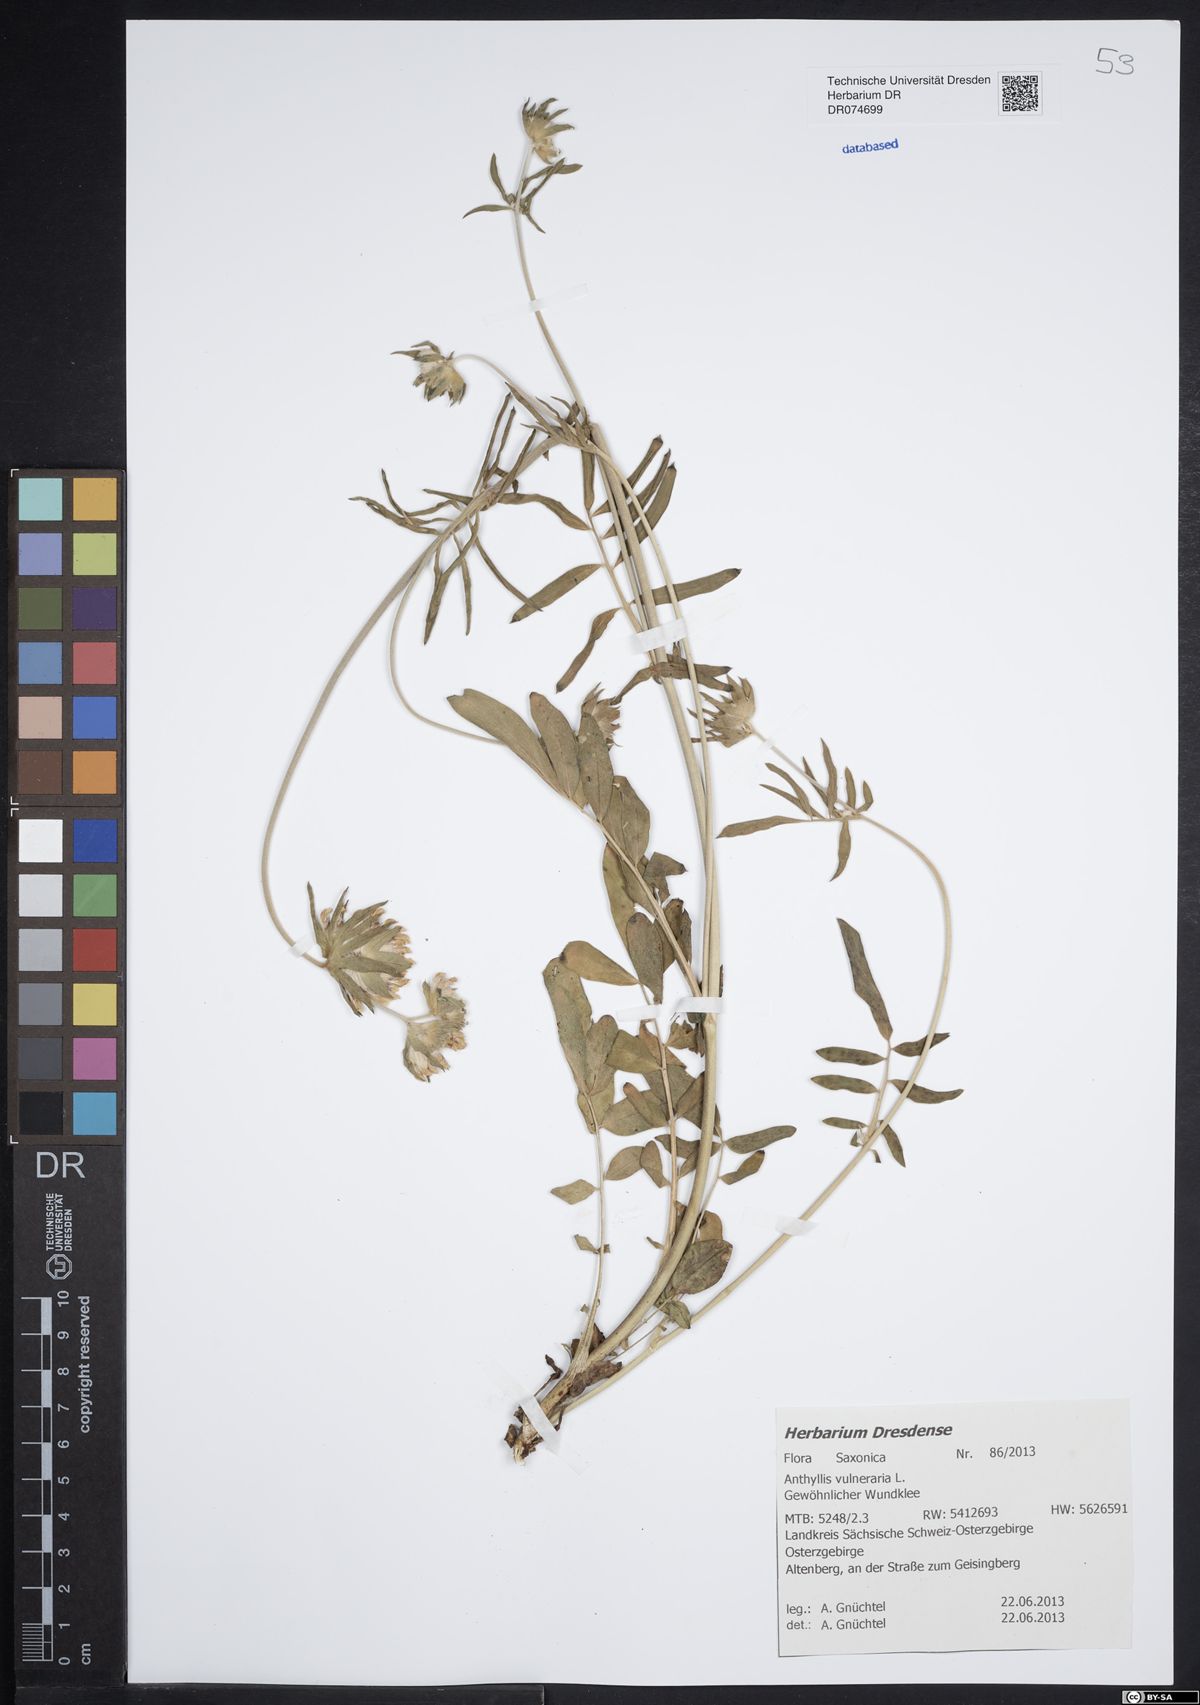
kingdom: Plantae
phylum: Tracheophyta
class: Magnoliopsida
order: Fabales
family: Fabaceae
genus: Anthyllis
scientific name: Anthyllis vulneraria
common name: Kidney vetch
